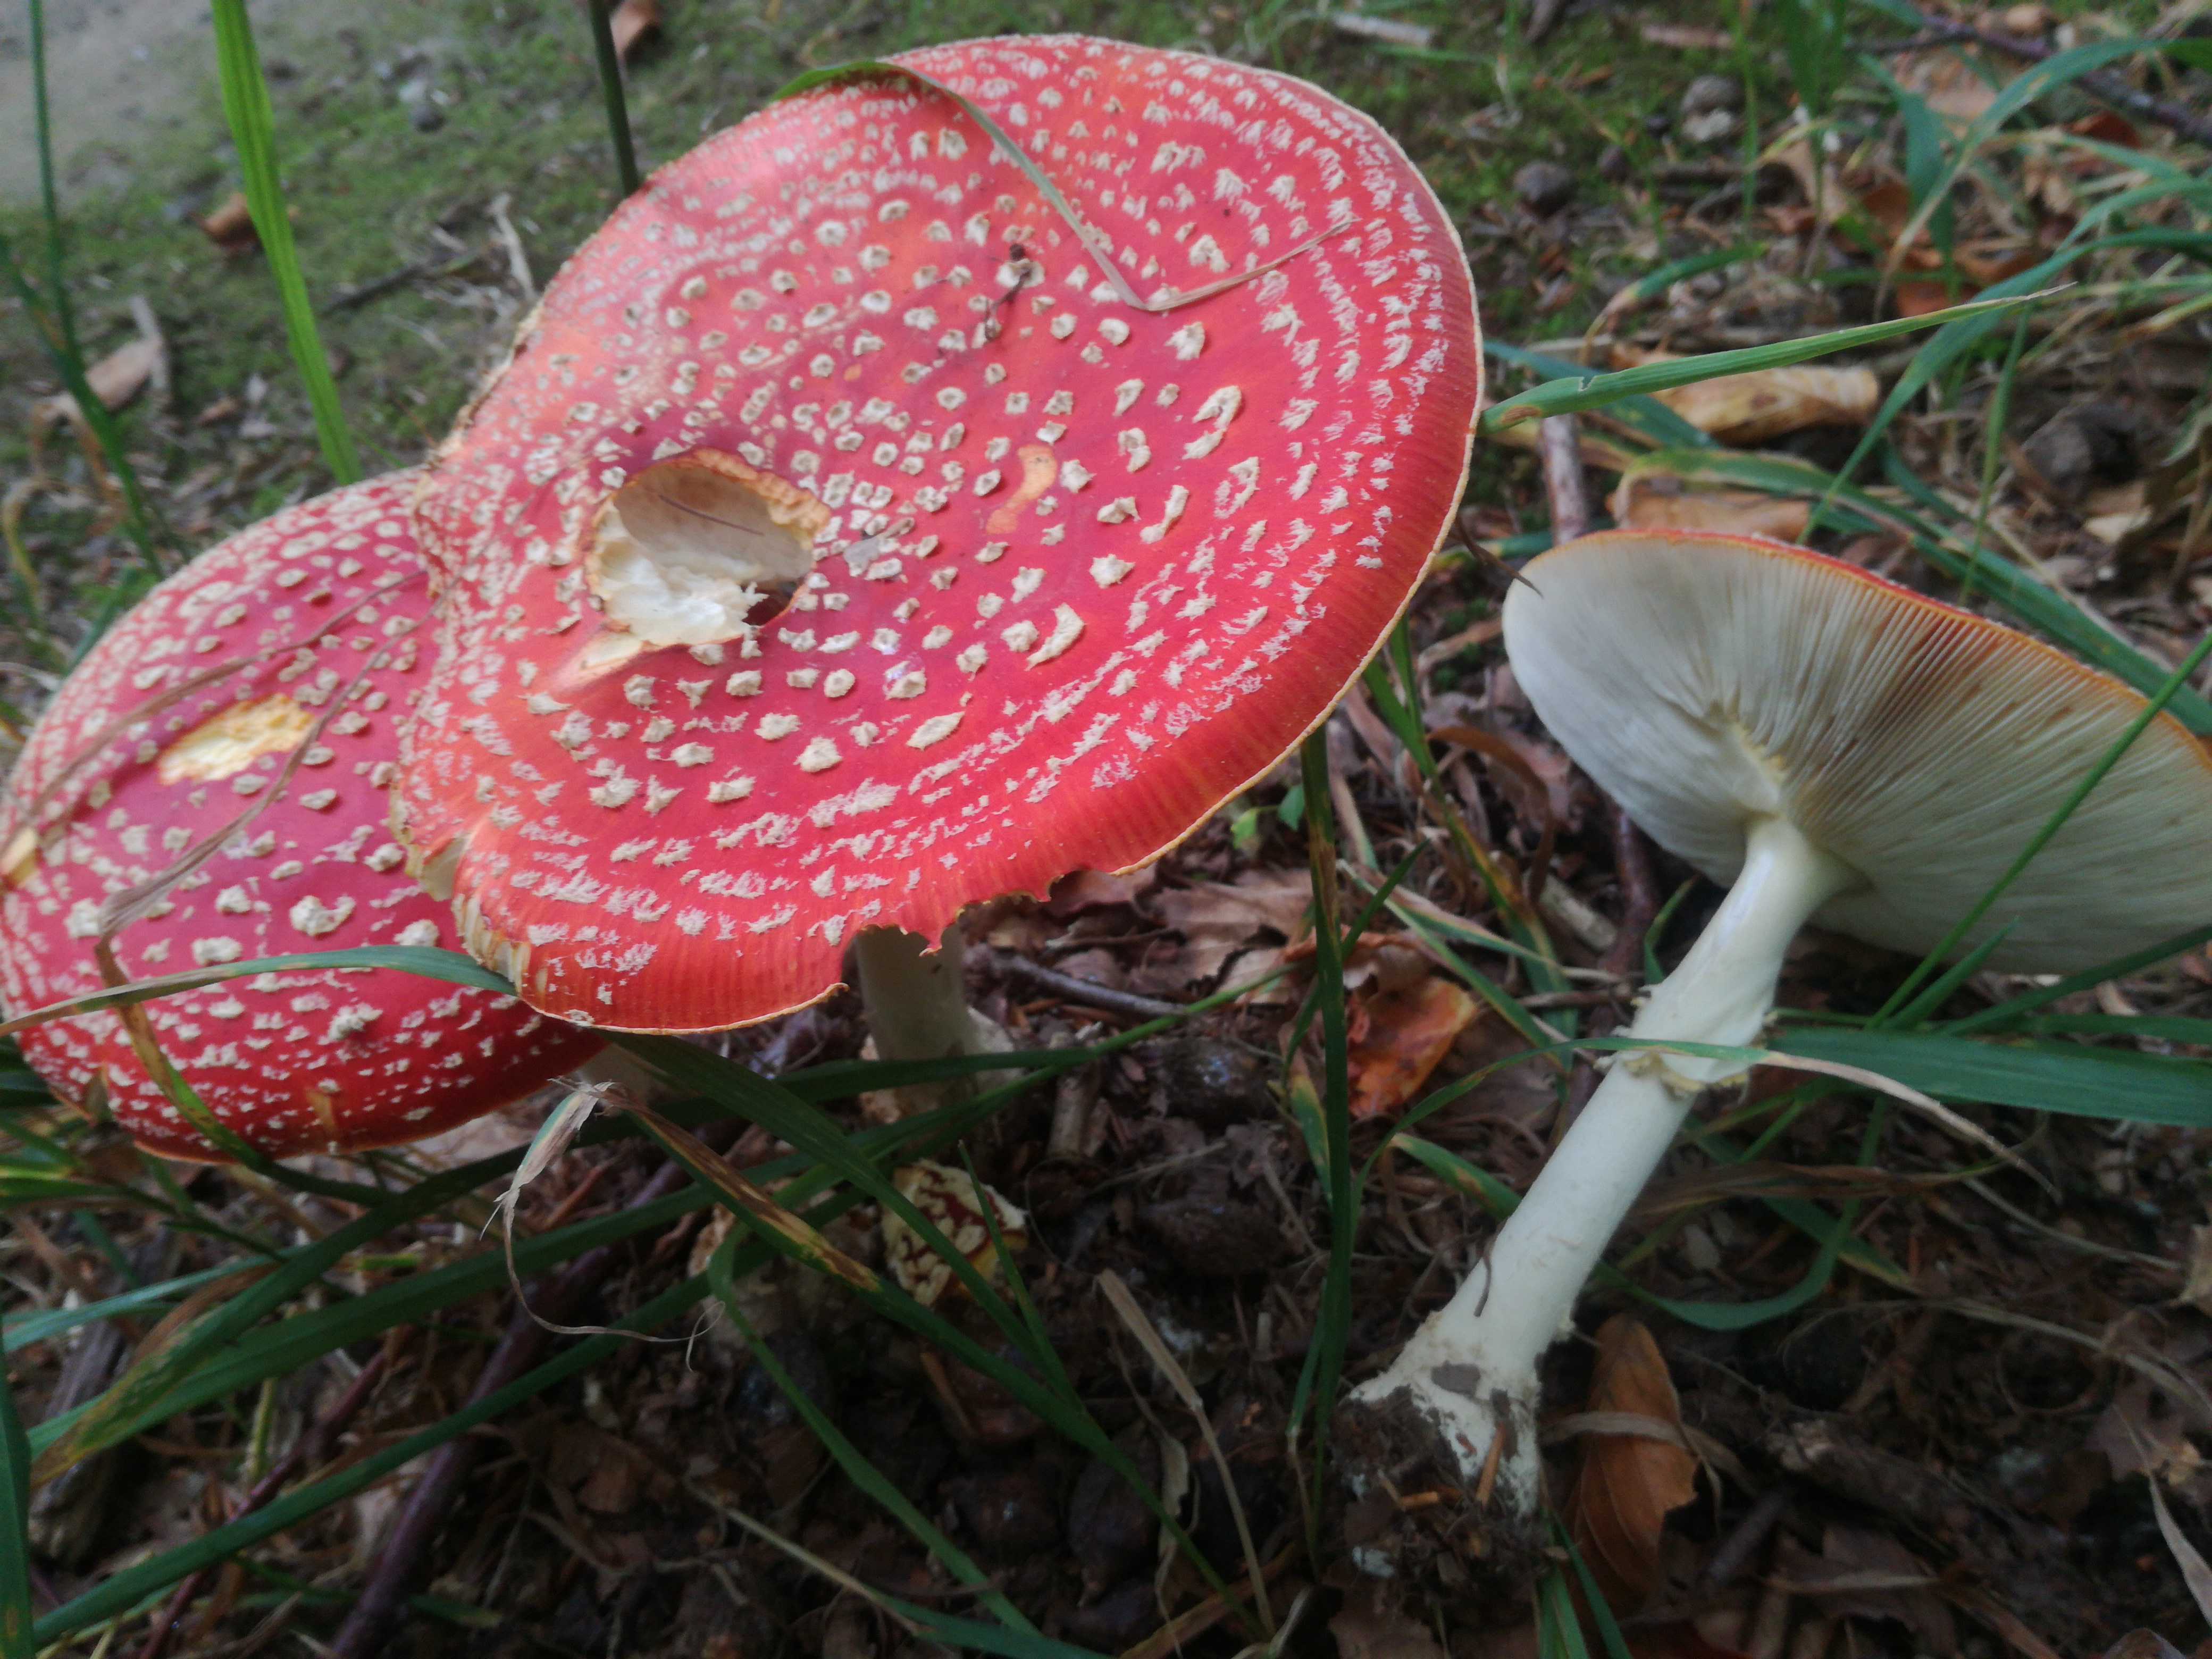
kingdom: Fungi
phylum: Basidiomycota
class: Agaricomycetes
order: Agaricales
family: Amanitaceae
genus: Amanita
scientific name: Amanita muscaria
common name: rød fluesvamp
